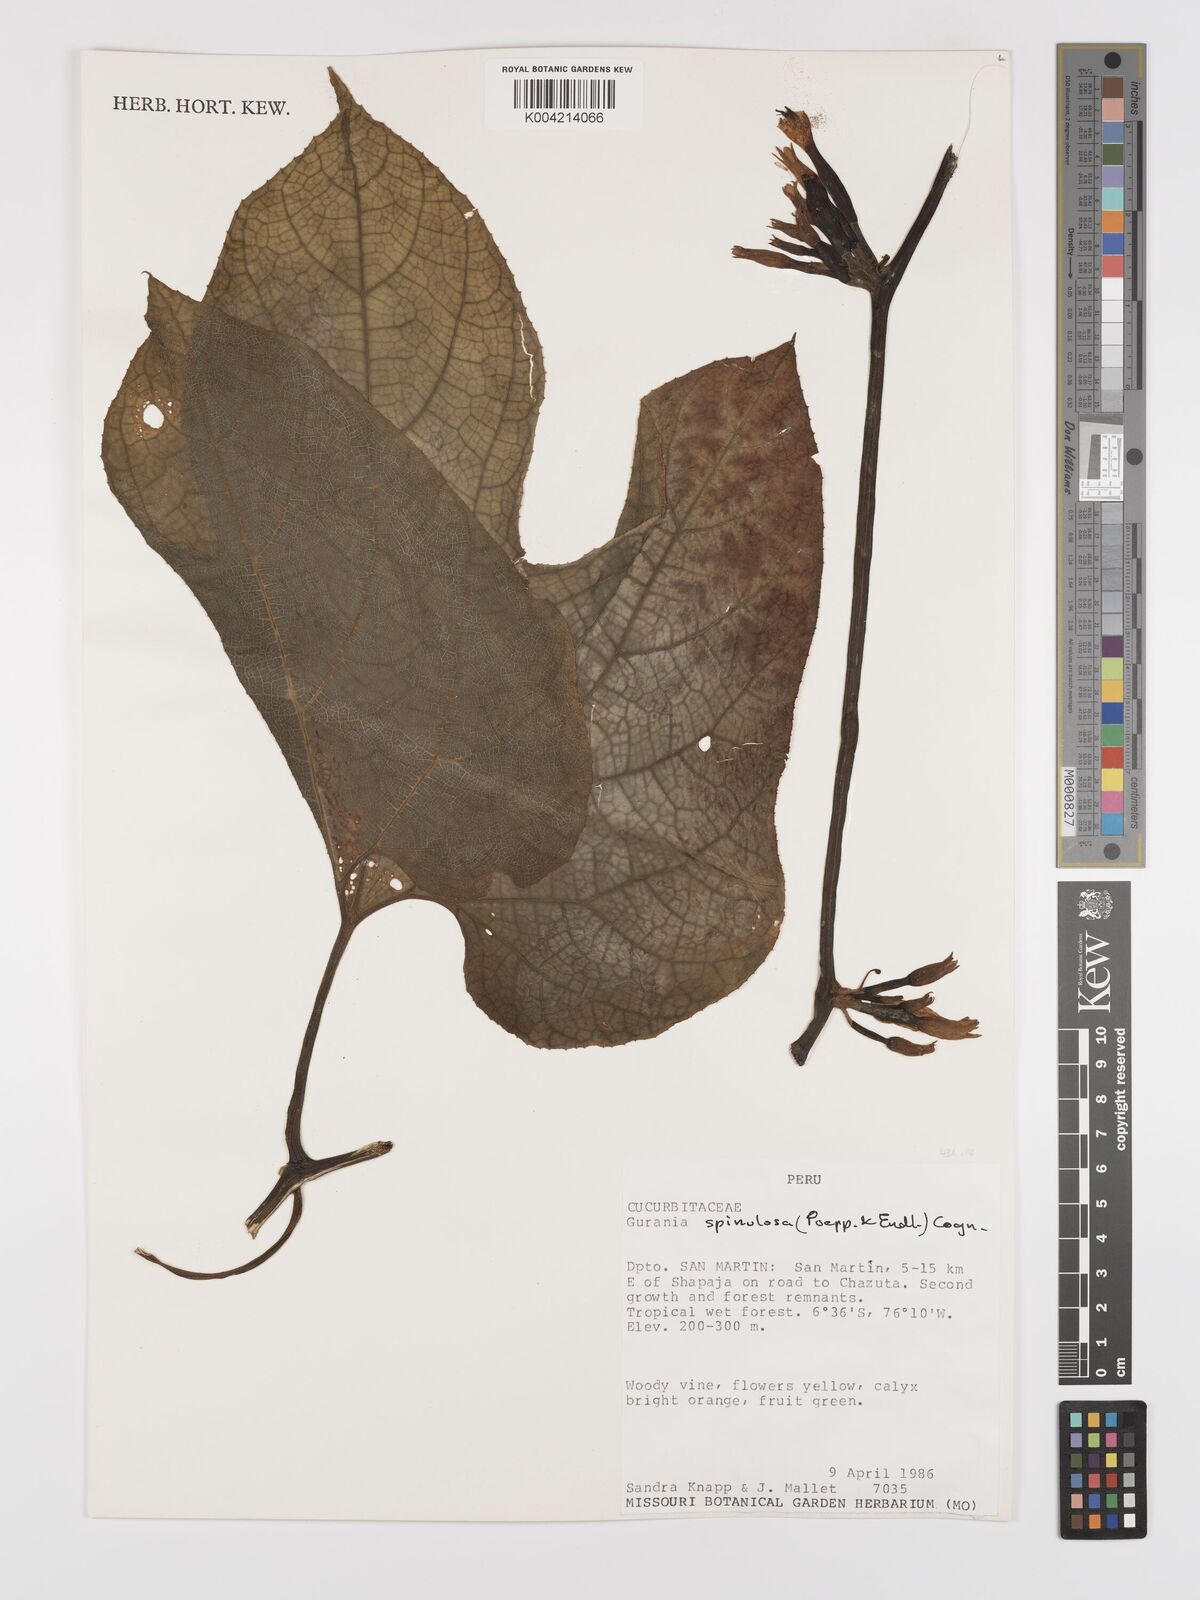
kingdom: Plantae
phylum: Tracheophyta
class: Magnoliopsida
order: Cucurbitales
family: Cucurbitaceae
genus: Gurania
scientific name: Gurania lobata
